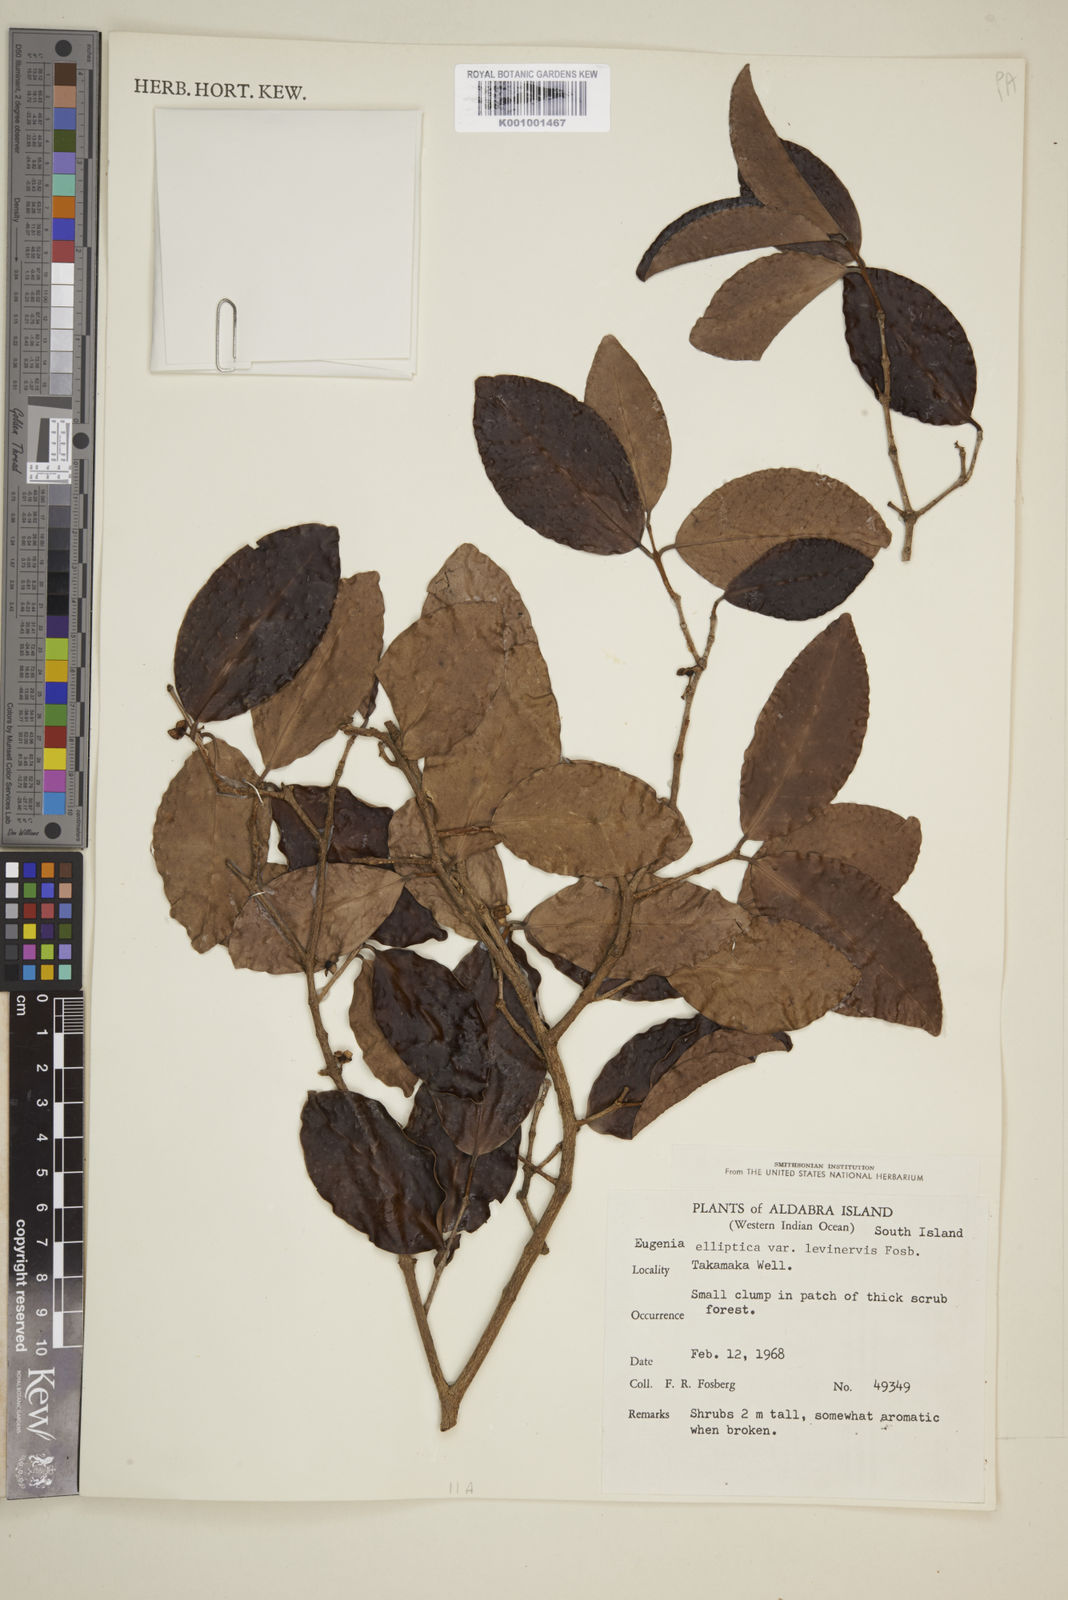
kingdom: Plantae
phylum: Tracheophyta
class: Magnoliopsida
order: Myrtales
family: Myrtaceae
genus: Eugenia
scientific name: Eugenia levinervis
